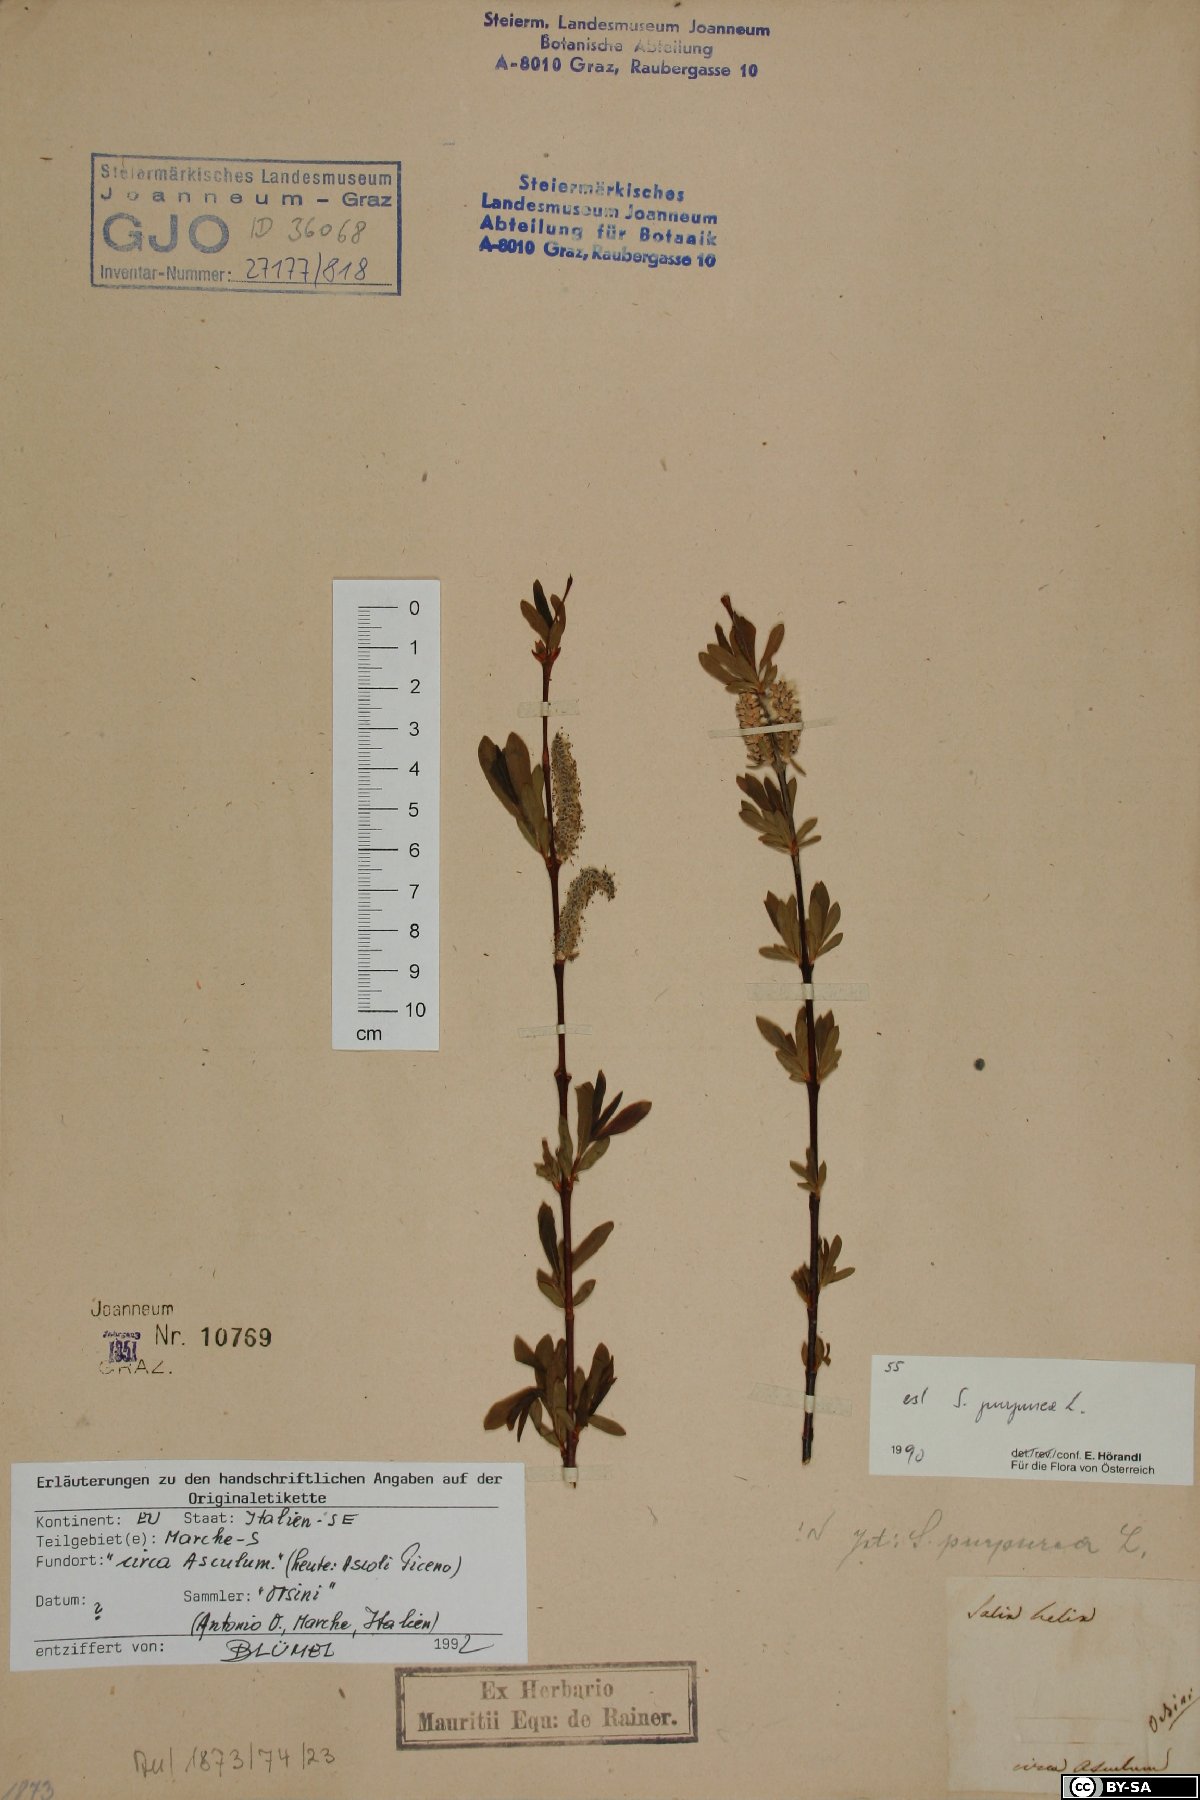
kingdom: Plantae
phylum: Tracheophyta
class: Magnoliopsida
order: Malpighiales
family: Salicaceae
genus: Salix
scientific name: Salix purpurea
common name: Purple willow
